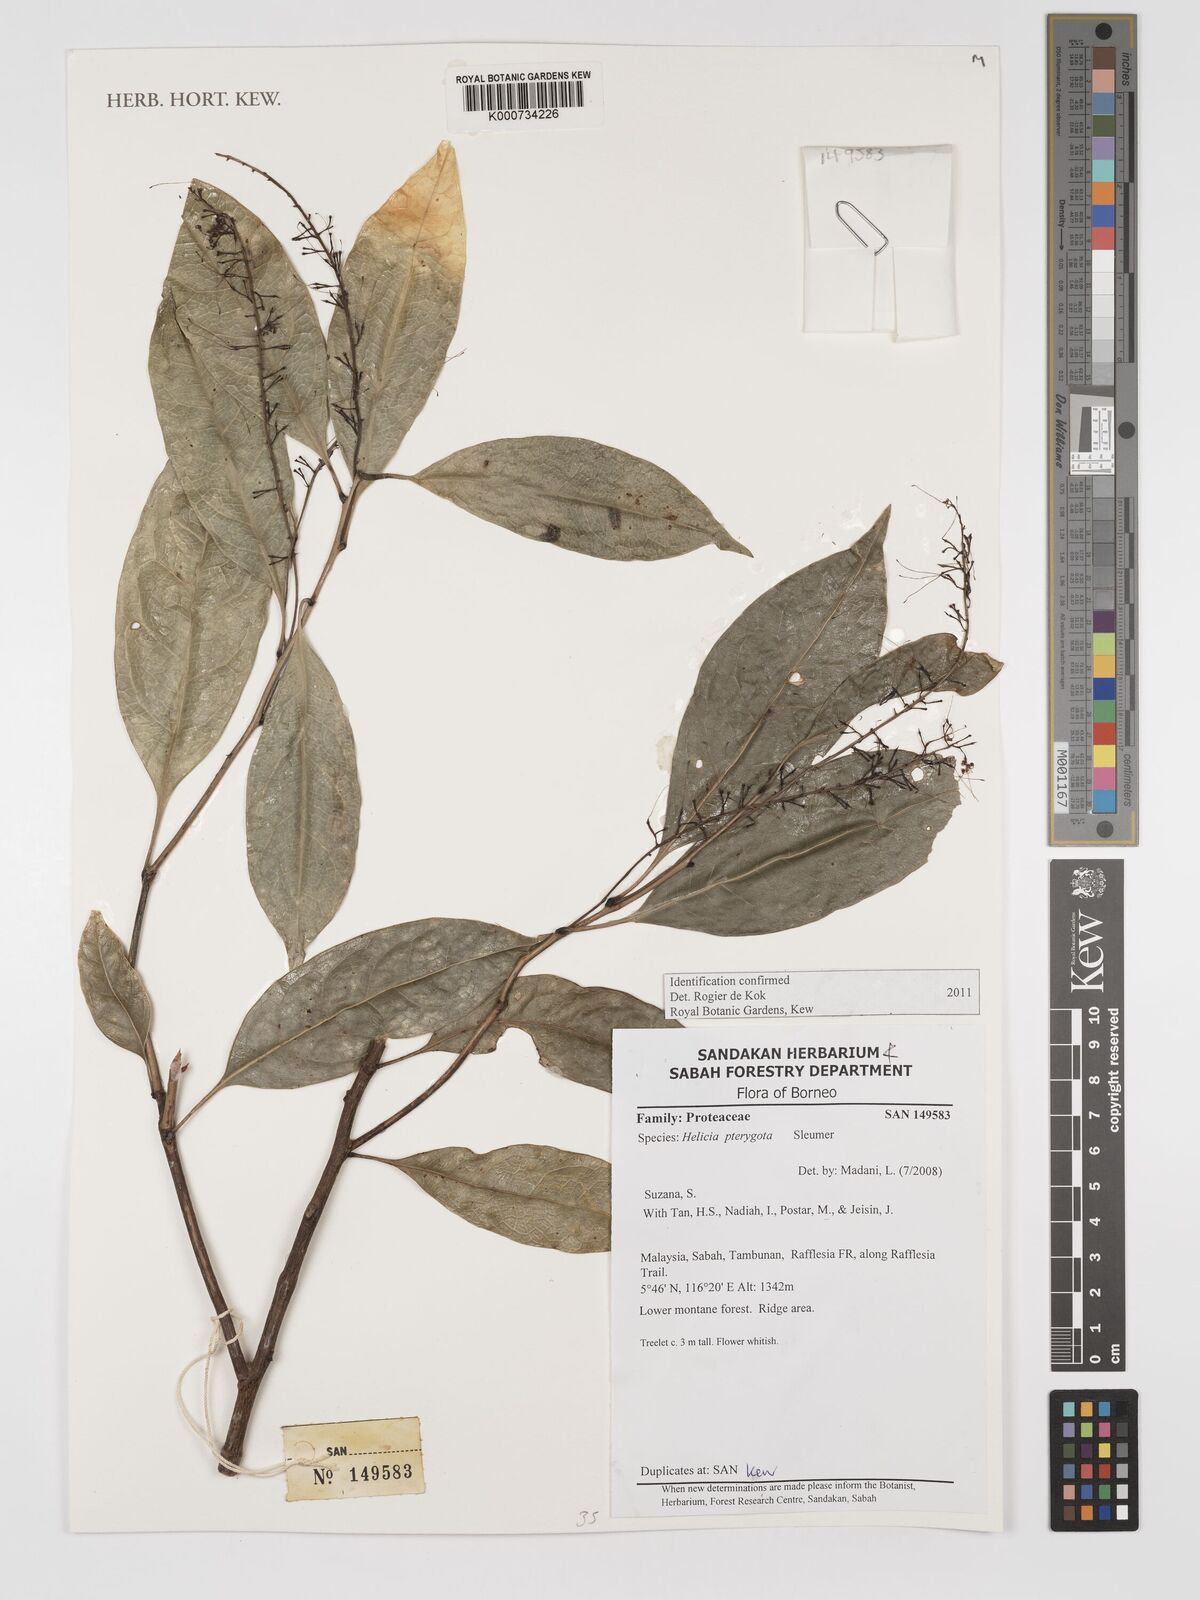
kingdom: Plantae
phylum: Tracheophyta
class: Magnoliopsida
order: Proteales
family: Proteaceae
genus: Helicia
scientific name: Helicia pterygota
